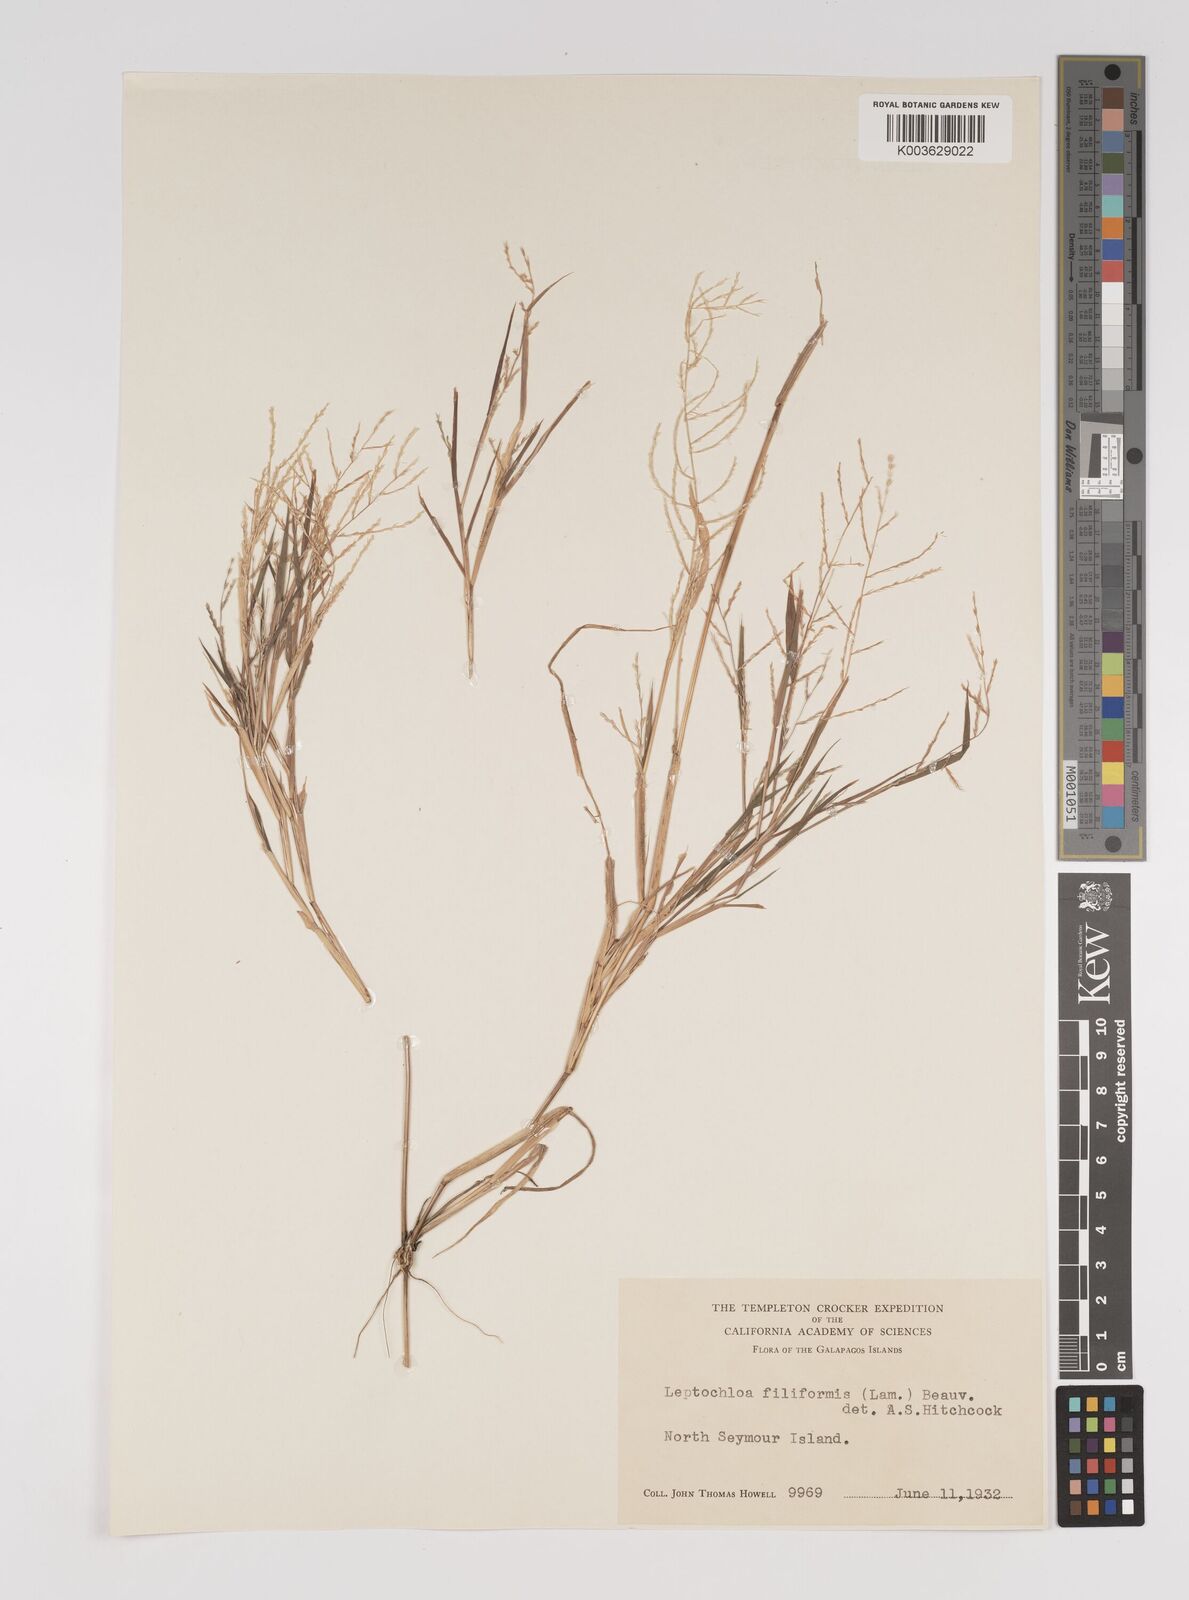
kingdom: Plantae
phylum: Tracheophyta
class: Liliopsida
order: Poales
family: Poaceae
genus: Leptochloa
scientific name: Leptochloa panicea
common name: Mucronate sprangletop
